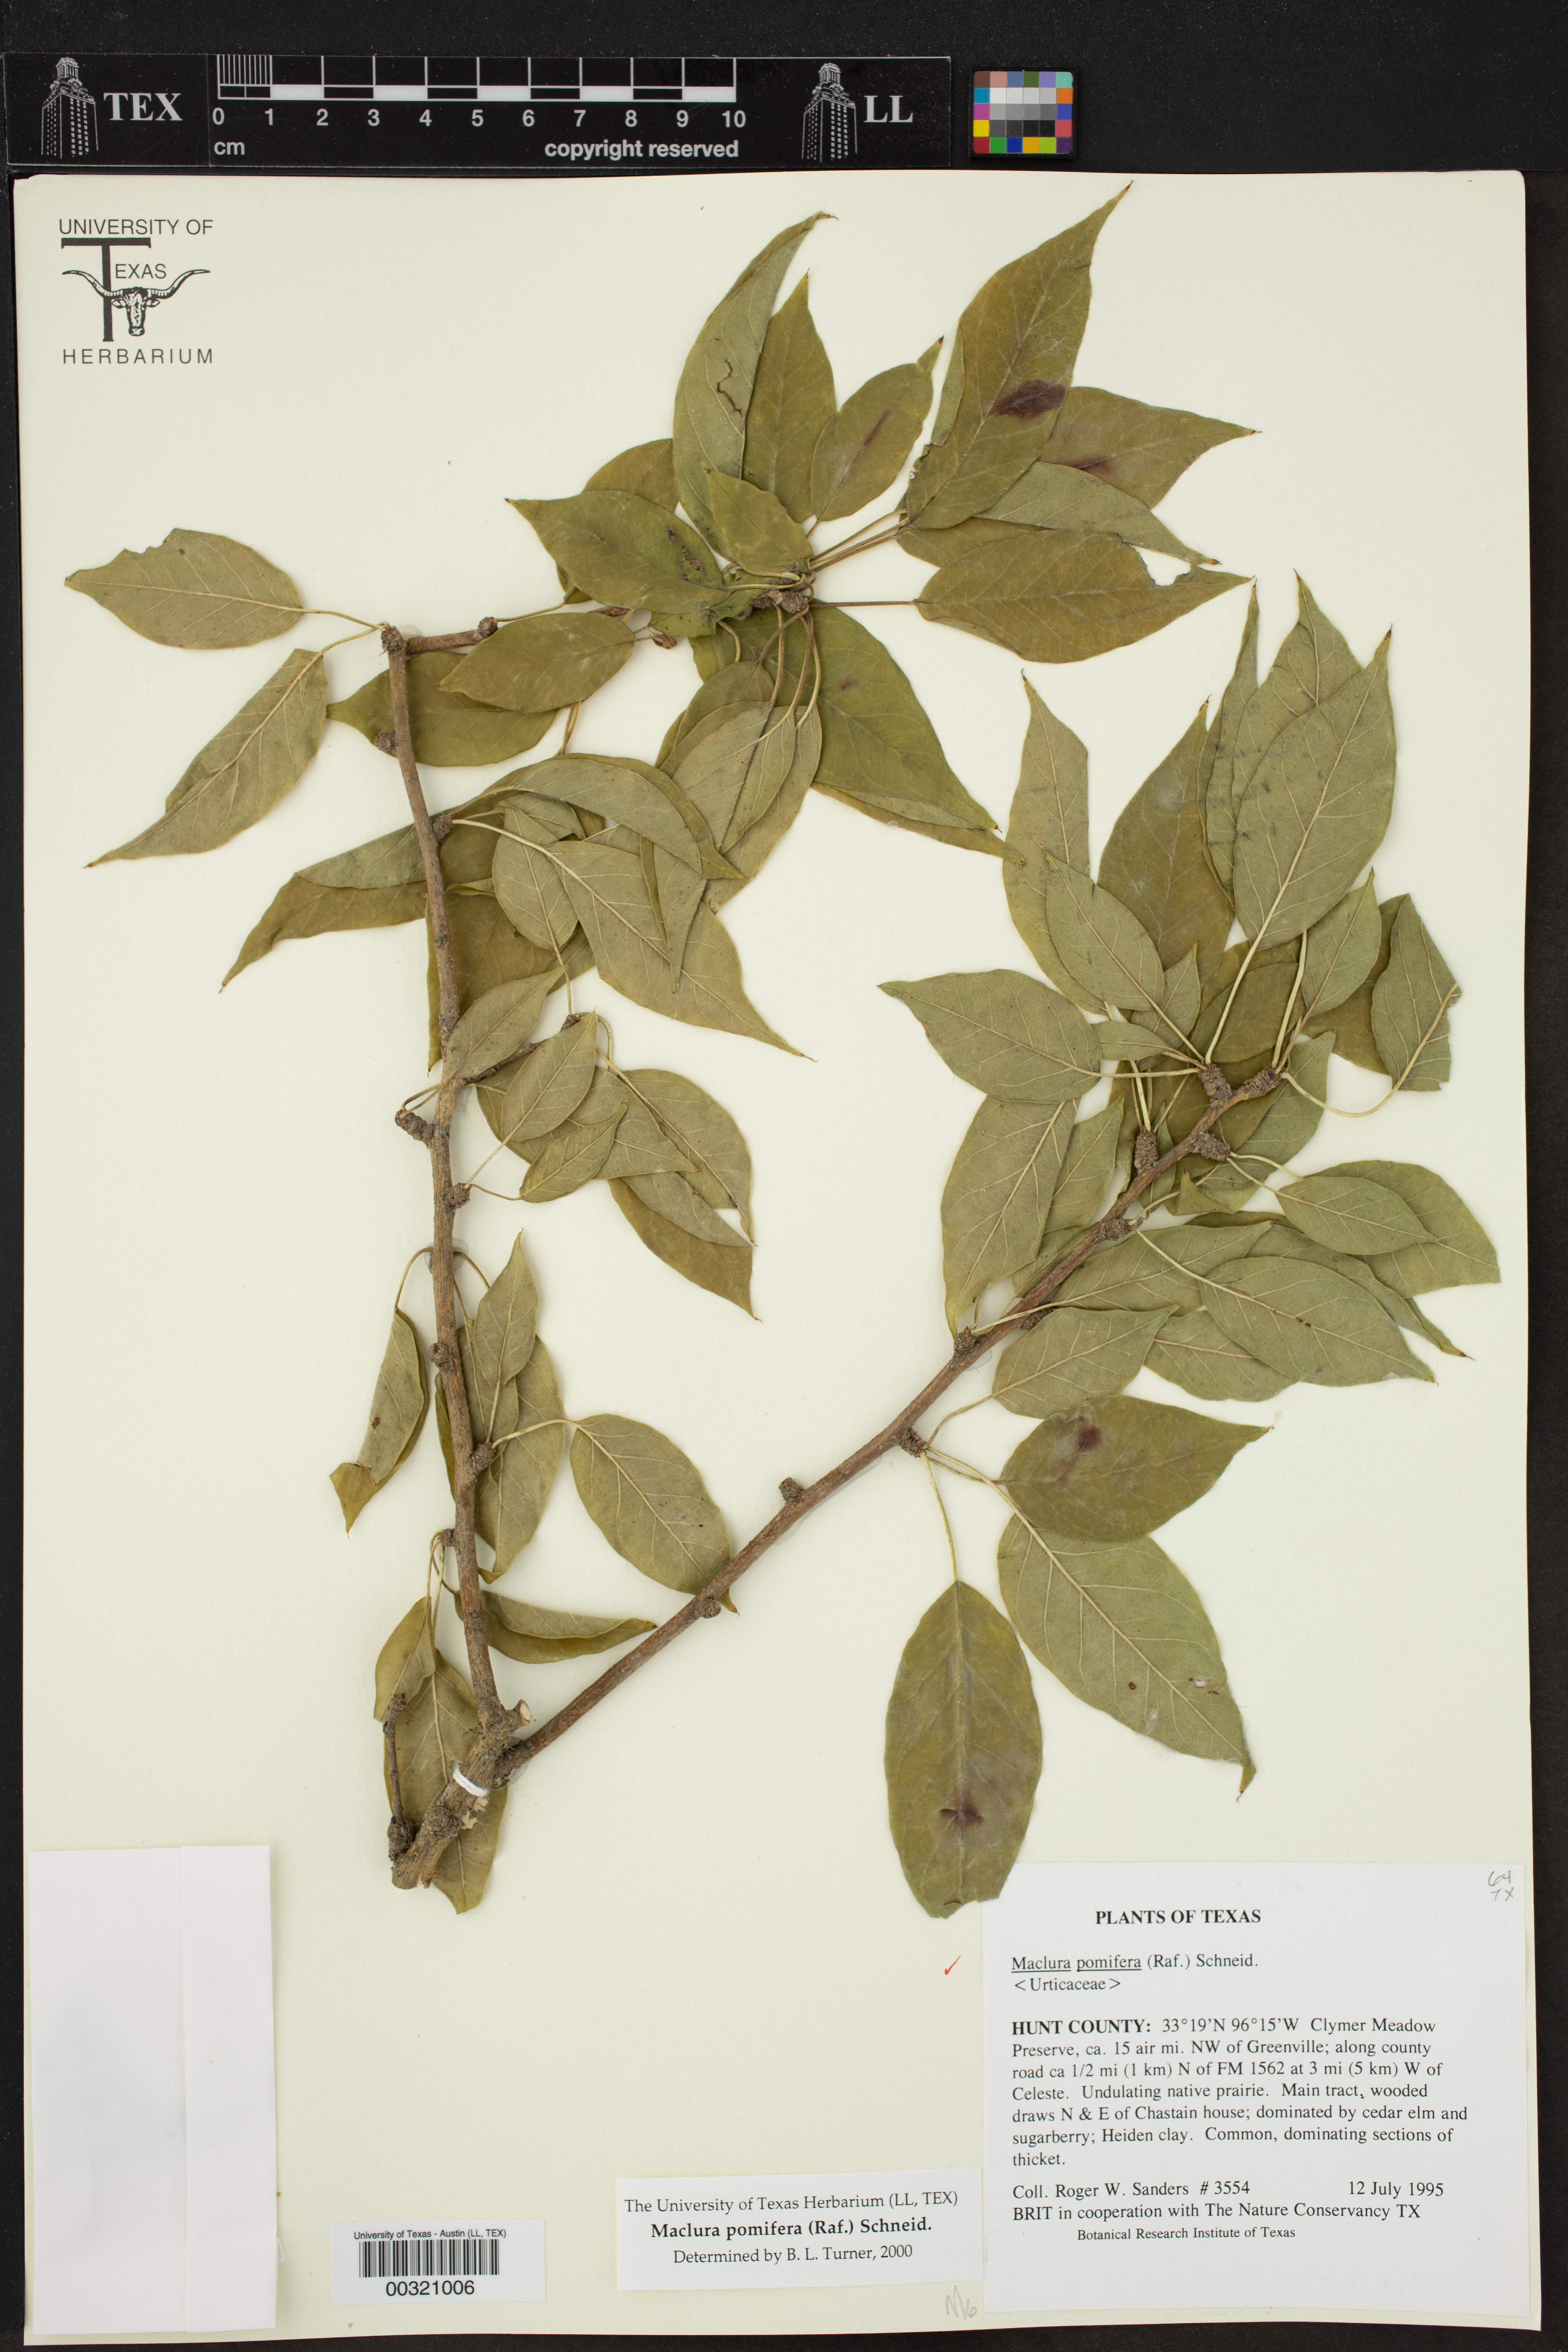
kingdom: Plantae
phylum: Tracheophyta
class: Magnoliopsida
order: Rosales
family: Moraceae
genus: Maclura
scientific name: Maclura pomifera
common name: Osage-orange
